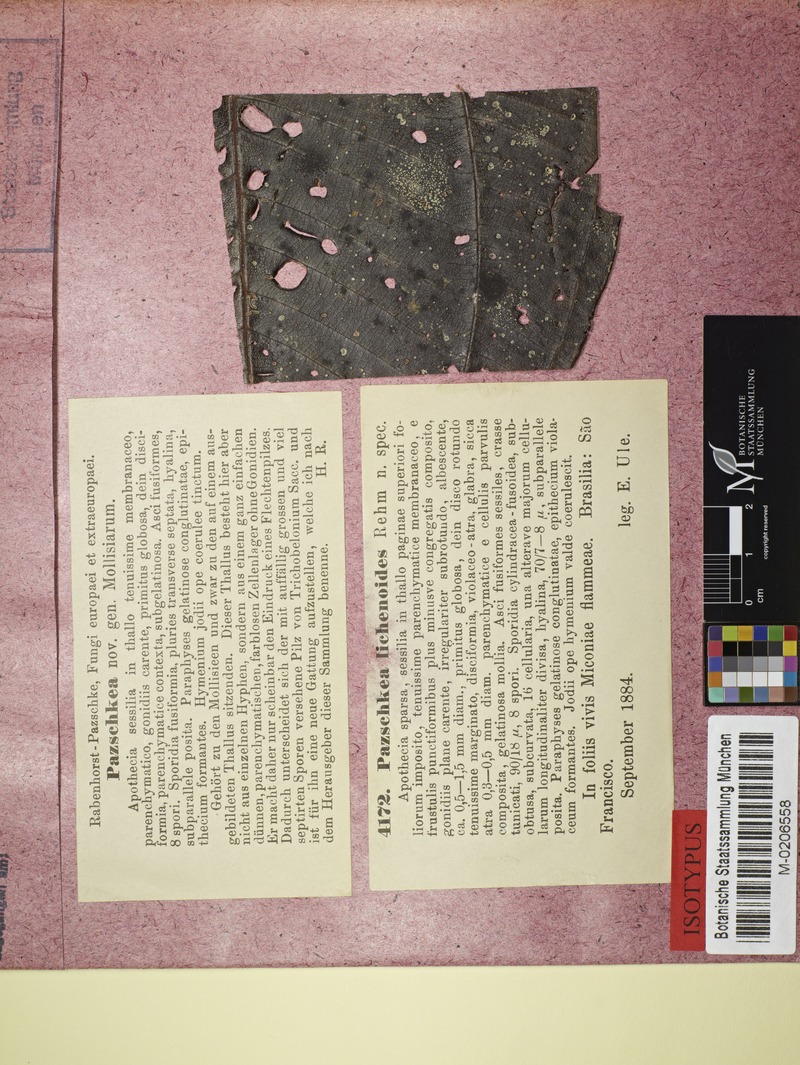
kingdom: Fungi
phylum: Ascomycota
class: Lecanoromycetes
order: Lecanorales
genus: Pazschkea
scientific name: Pazschkea lichenoides
